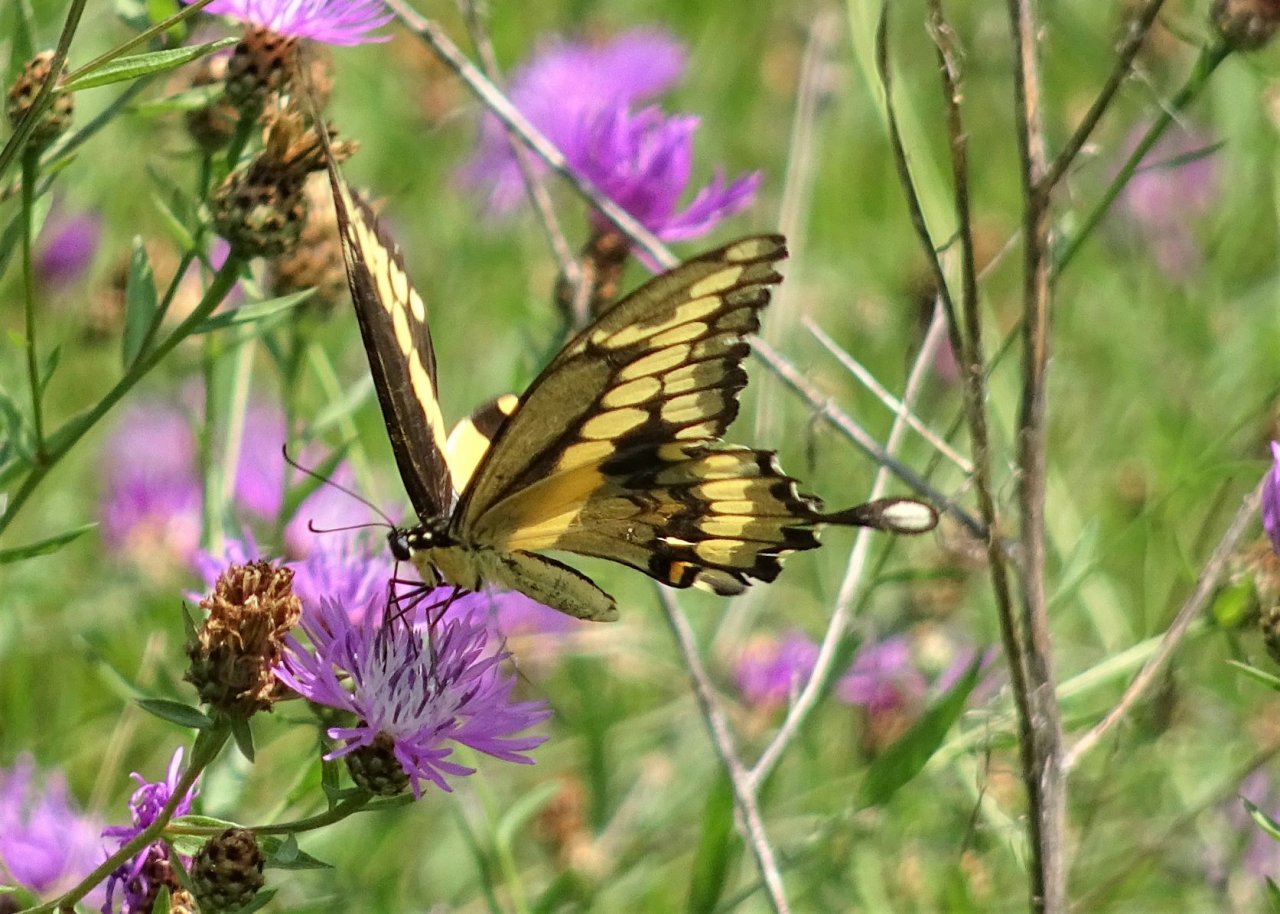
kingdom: Animalia
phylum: Arthropoda
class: Insecta
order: Lepidoptera
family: Papilionidae
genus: Papilio
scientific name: Papilio cresphontes
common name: Eastern Giant Swallowtail
